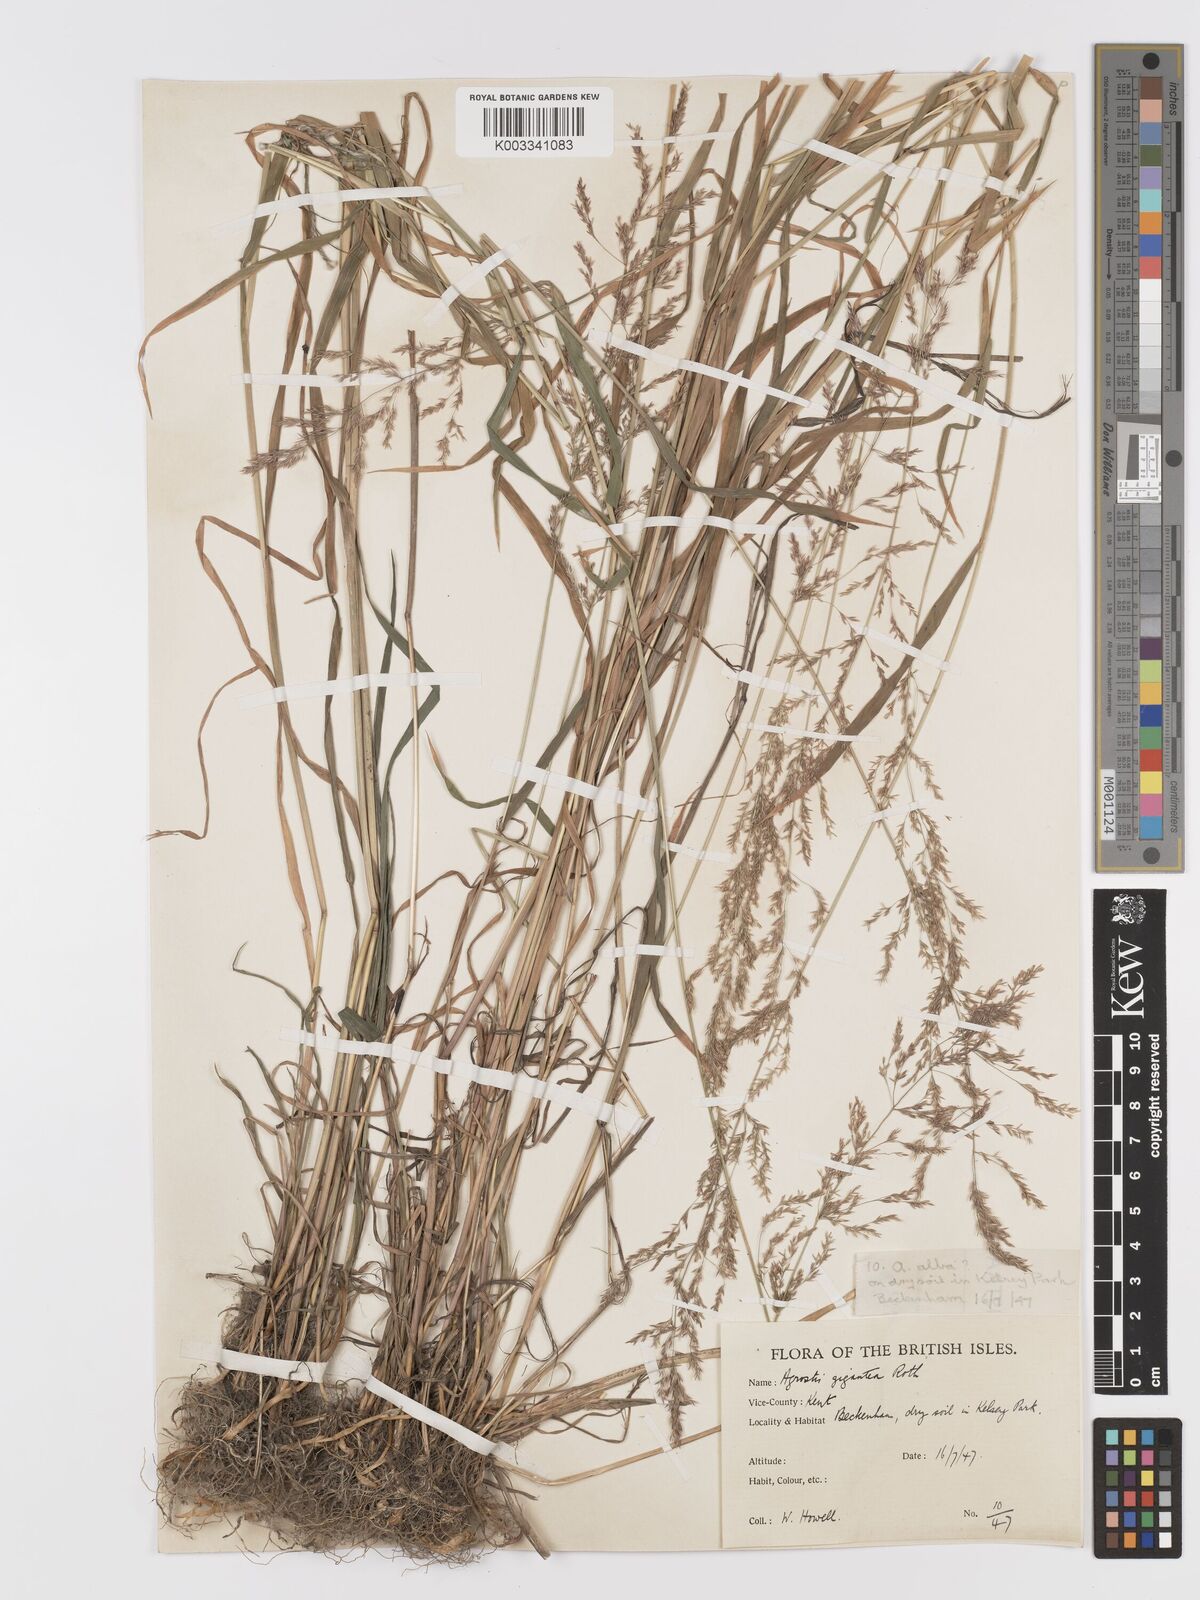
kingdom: Plantae
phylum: Tracheophyta
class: Liliopsida
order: Poales
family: Poaceae
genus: Agrostis
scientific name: Agrostis gigantea
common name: Black bent
